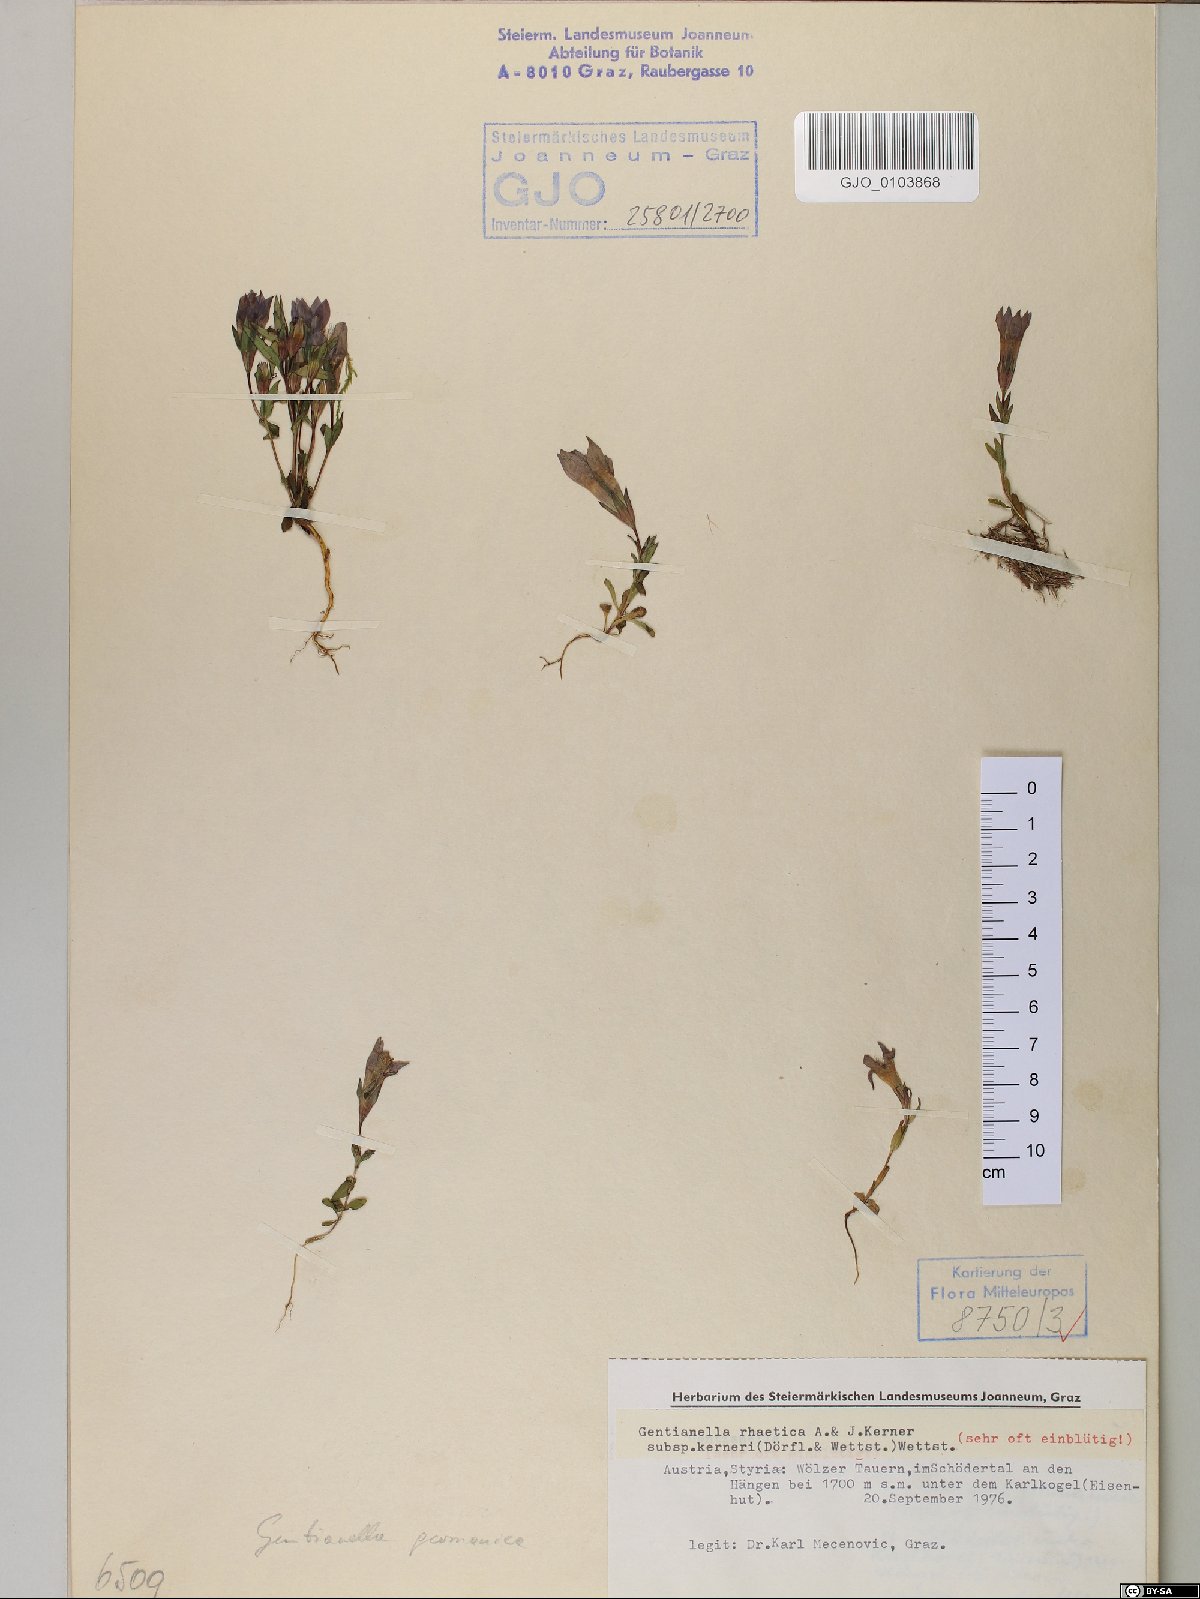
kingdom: Plantae
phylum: Tracheophyta
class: Magnoliopsida
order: Gentianales
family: Gentianaceae
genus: Gentianella
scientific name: Gentianella rhaetica
